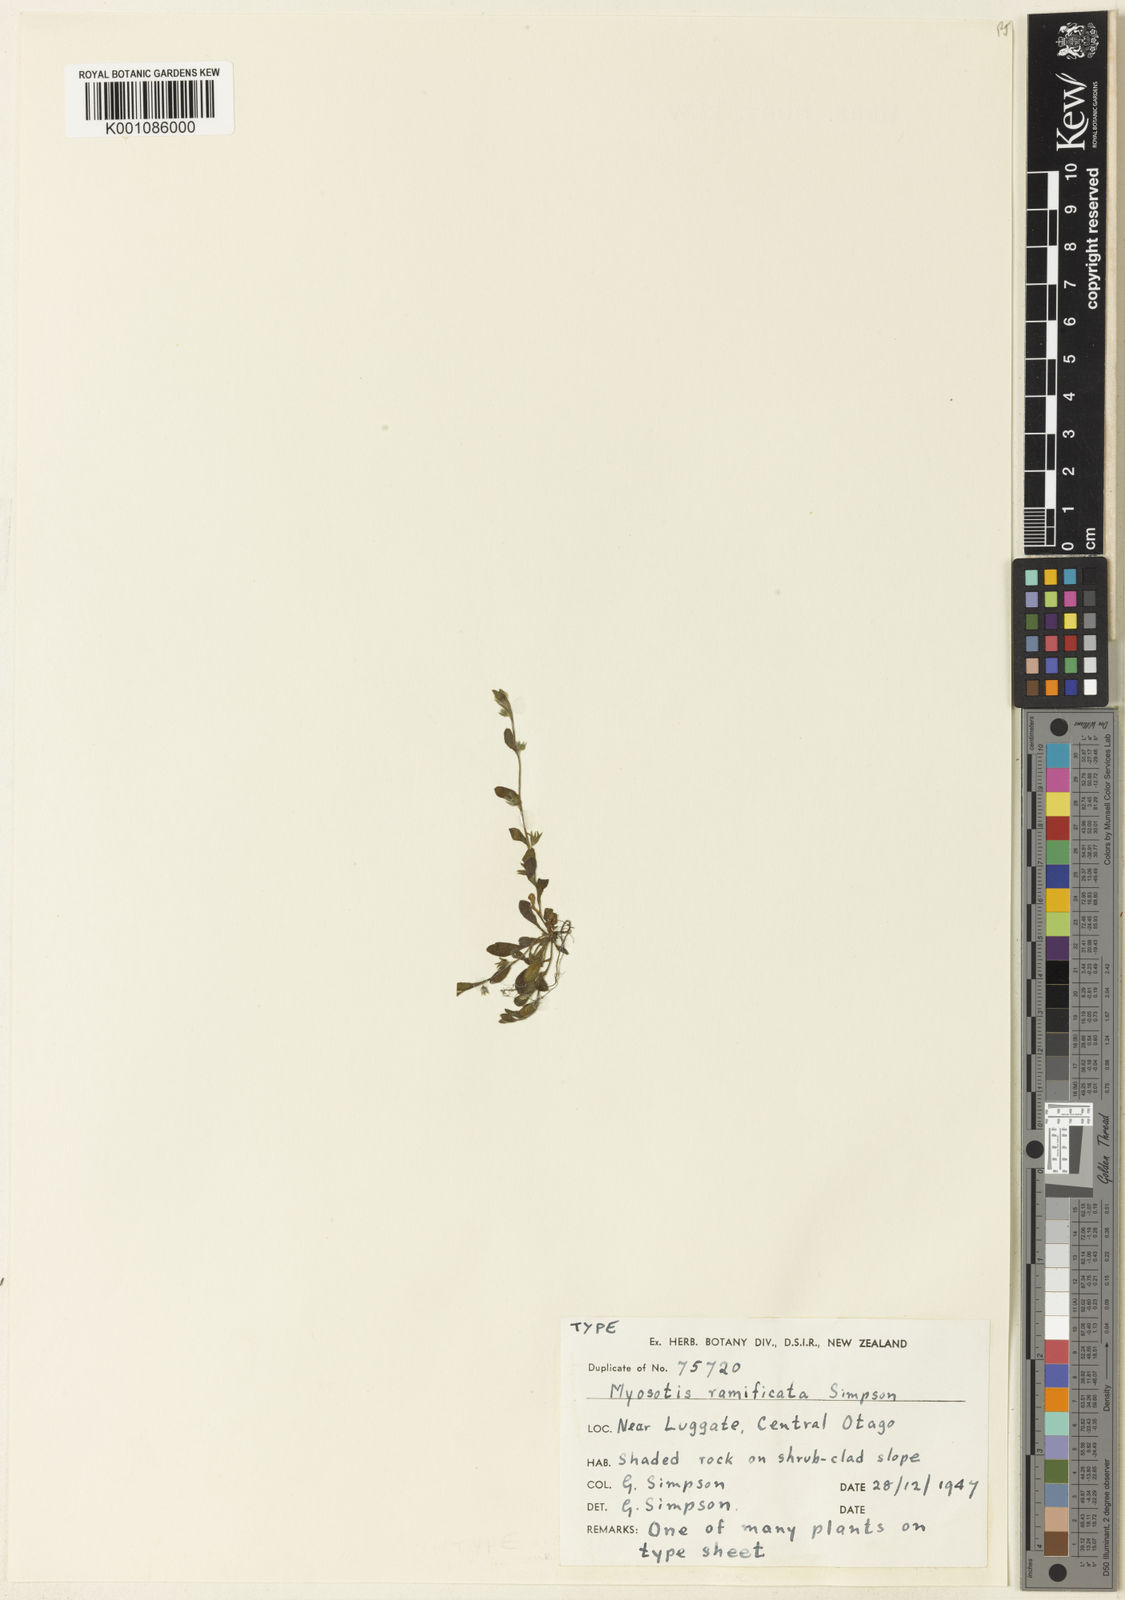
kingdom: Plantae
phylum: Tracheophyta
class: Magnoliopsida
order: Boraginales
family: Boraginaceae
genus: Myosotis
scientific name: Myosotis antarctica
